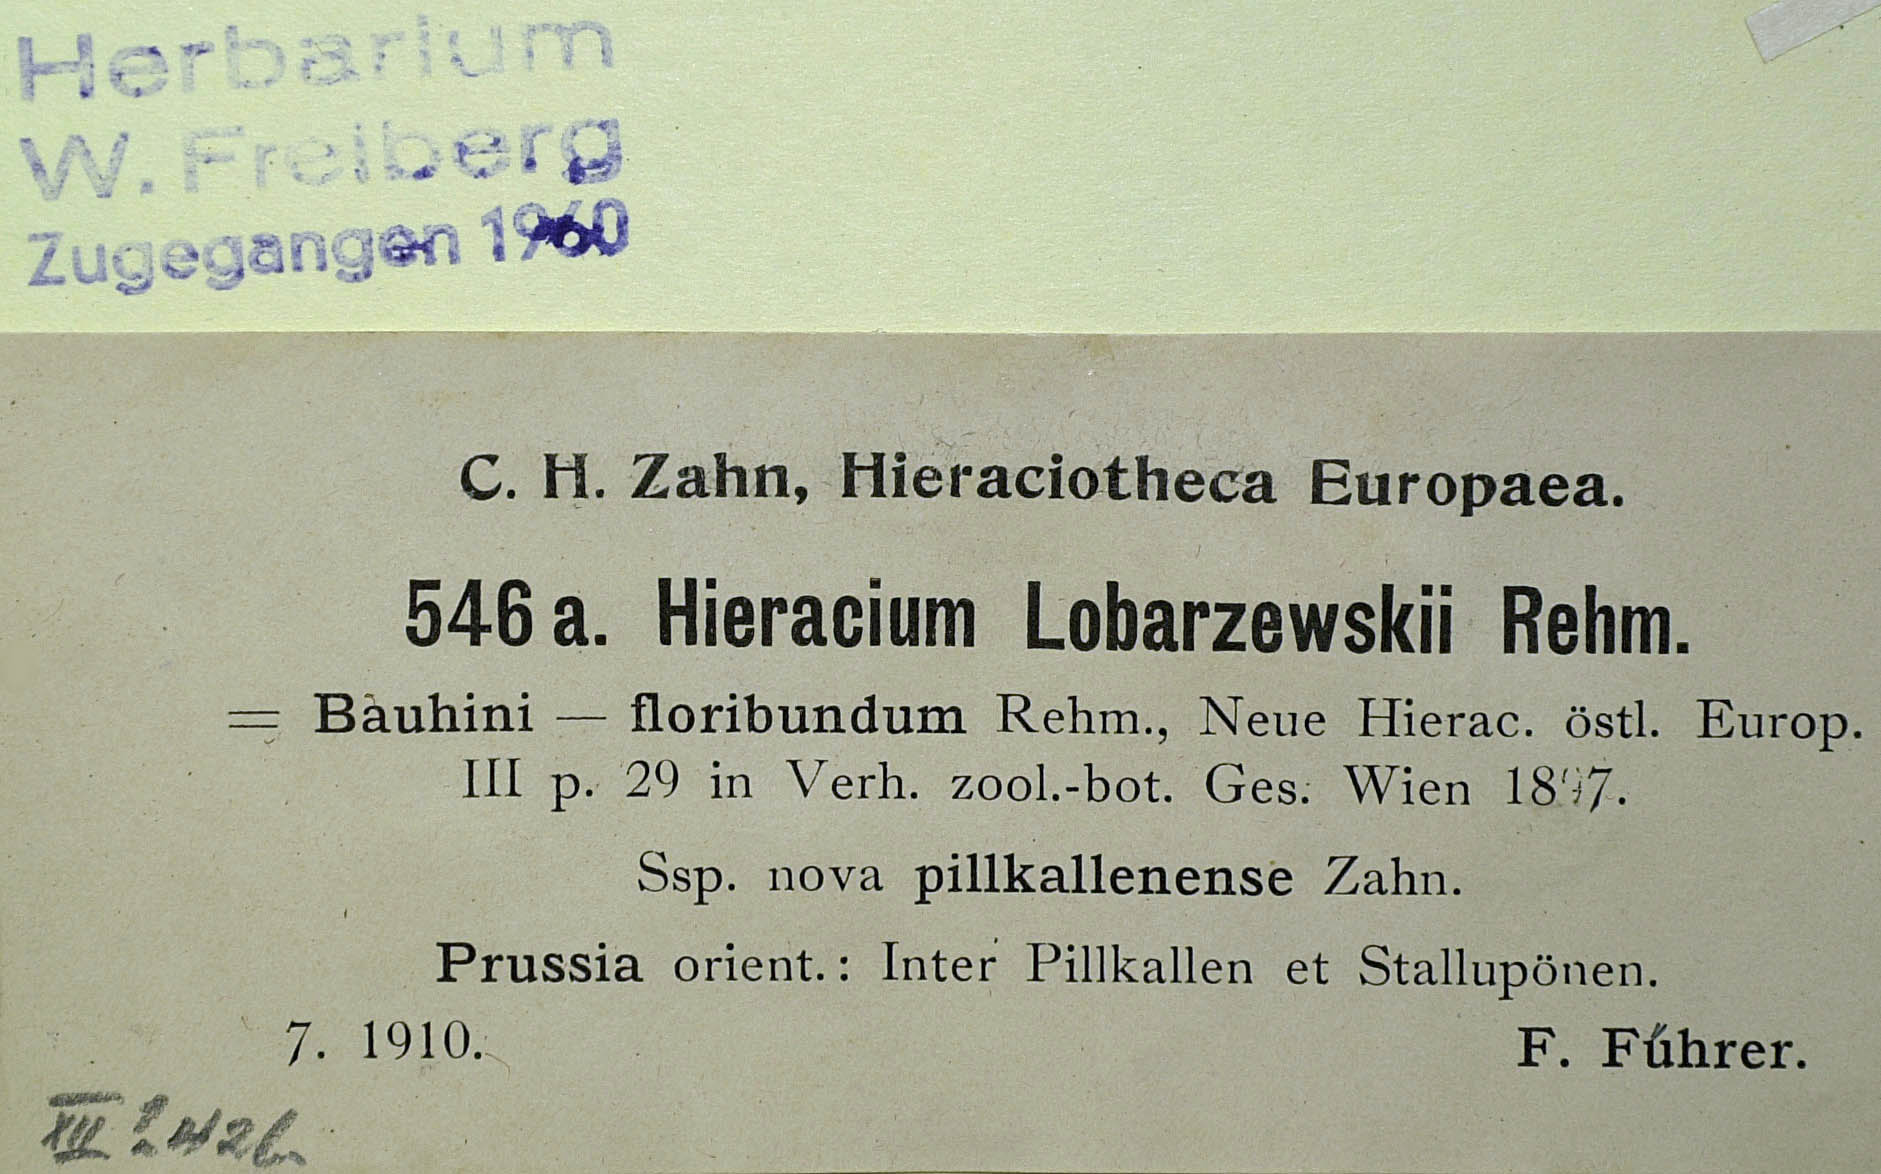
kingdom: Plantae
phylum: Tracheophyta
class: Magnoliopsida
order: Asterales
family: Asteraceae
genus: Pilosella
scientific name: Pilosella floribunda
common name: Glaucous hawkweed
